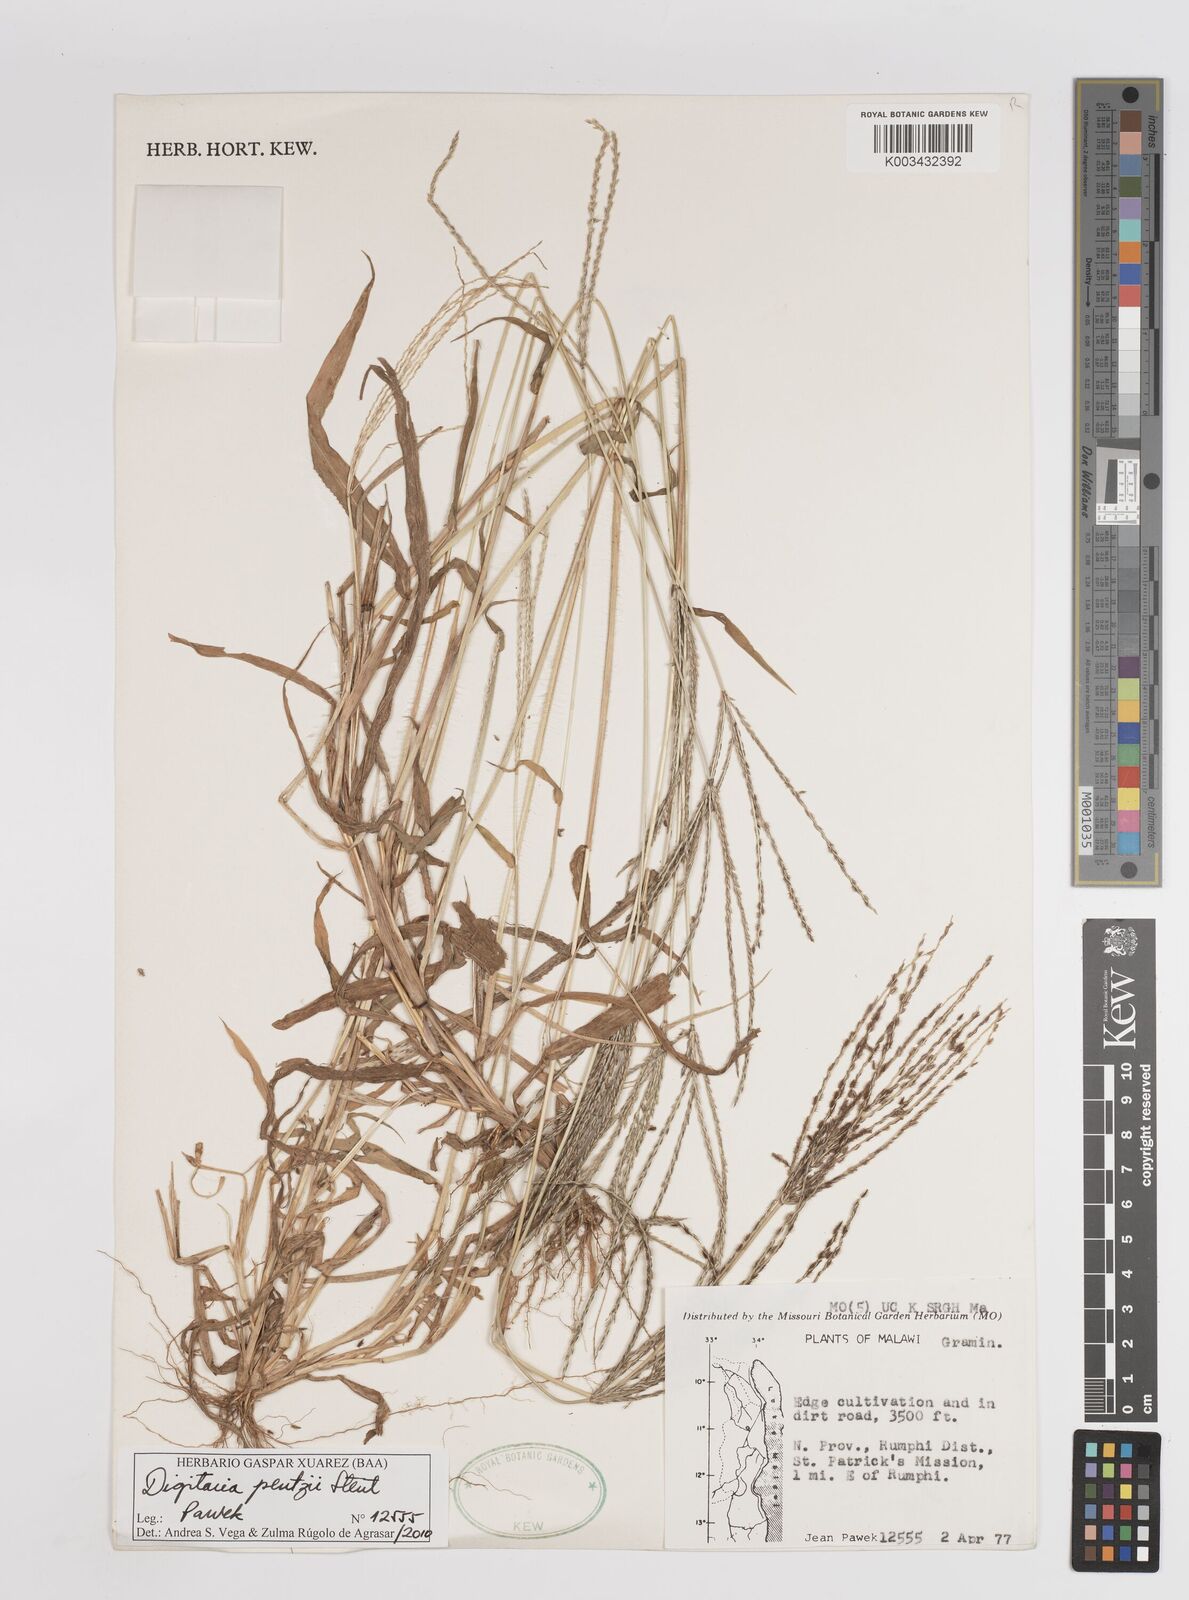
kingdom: Plantae
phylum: Tracheophyta
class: Liliopsida
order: Poales
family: Poaceae
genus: Digitaria
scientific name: Digitaria eriantha
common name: Digitgrass
